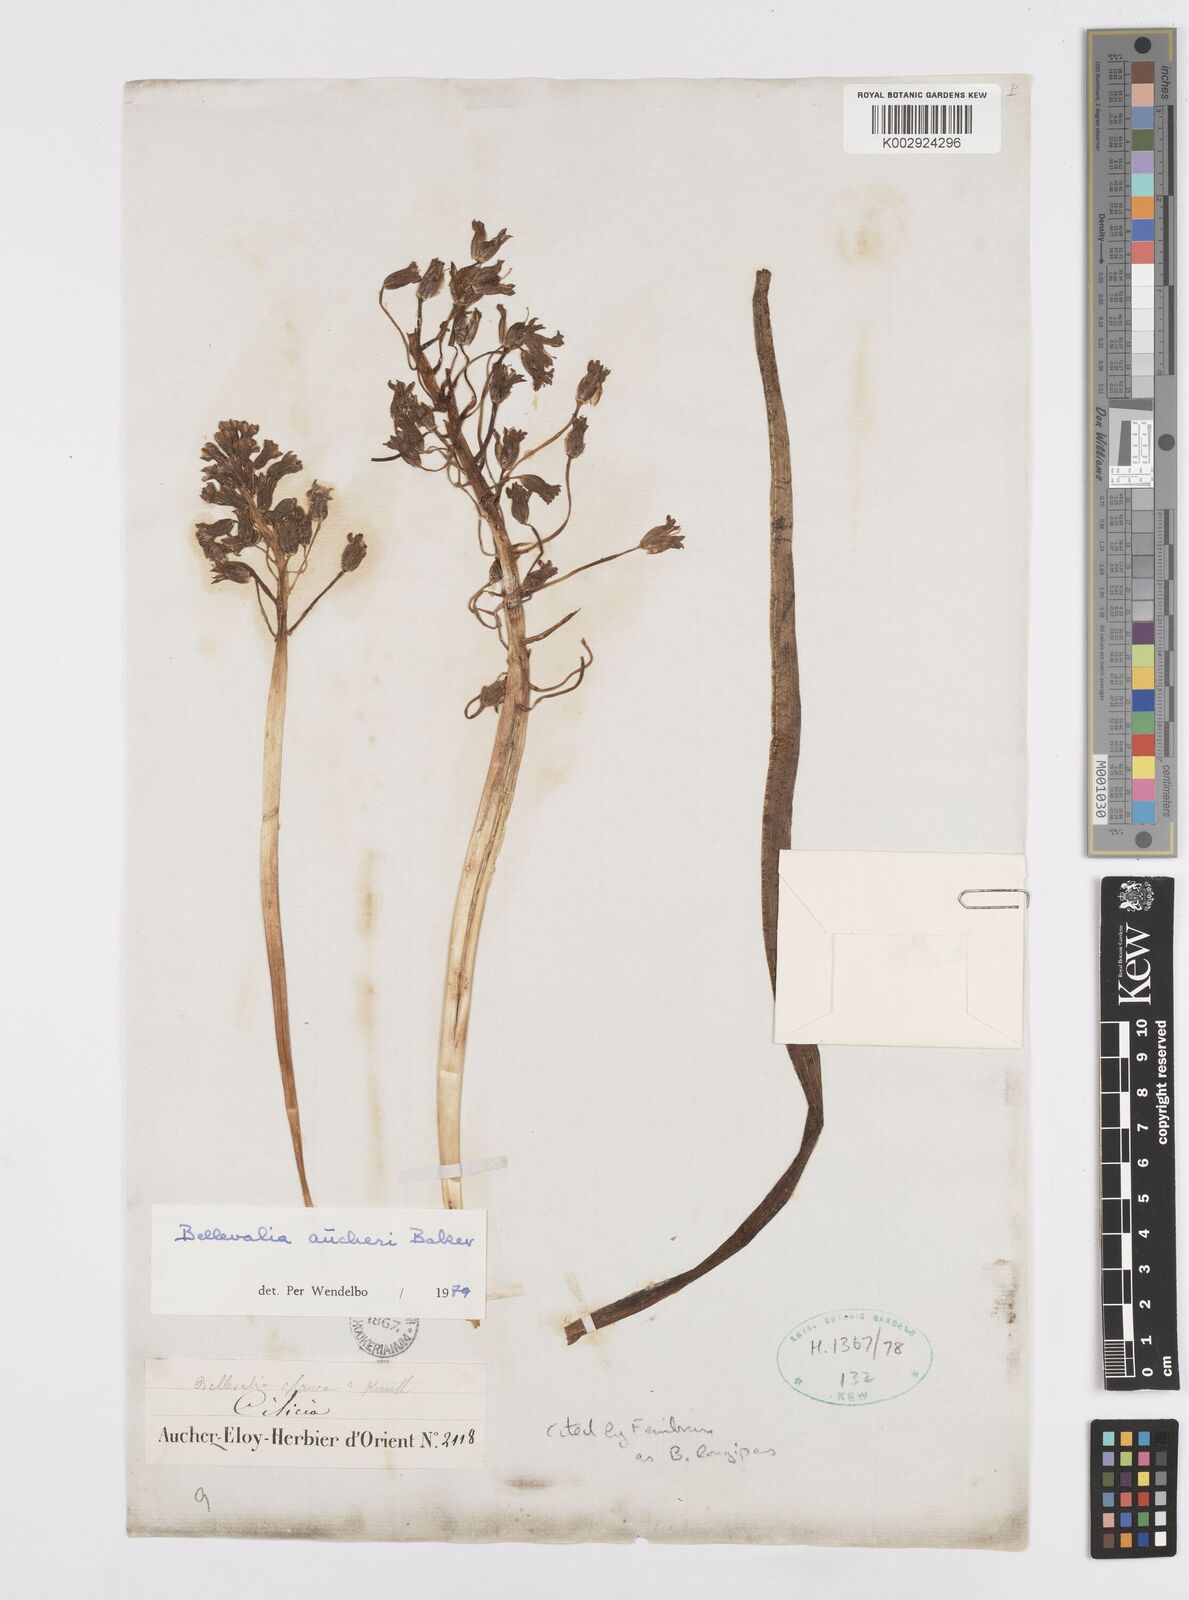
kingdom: Plantae
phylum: Tracheophyta
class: Liliopsida
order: Asparagales
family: Asparagaceae
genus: Bellevalia
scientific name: Bellevalia aucheri
